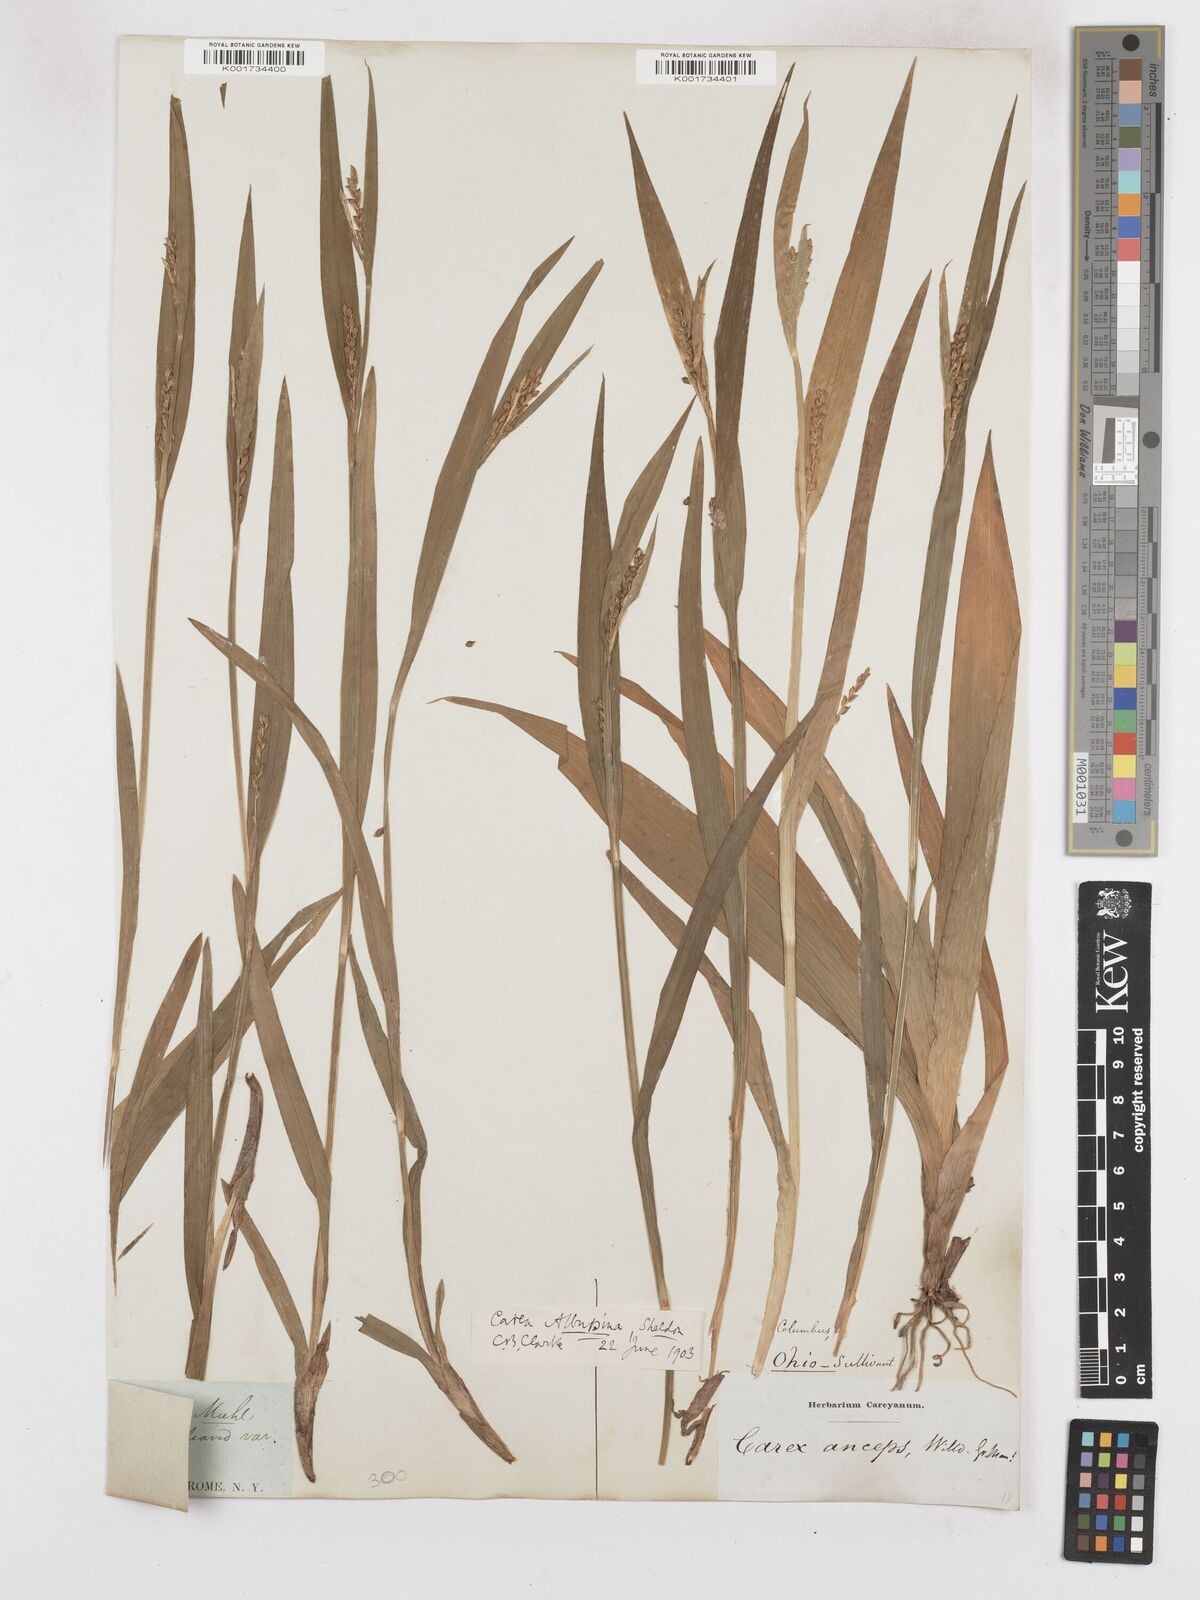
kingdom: Plantae
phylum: Tracheophyta
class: Liliopsida
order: Poales
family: Cyperaceae
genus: Carex
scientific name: Carex albursina
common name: Blunt-scale wood sedge
